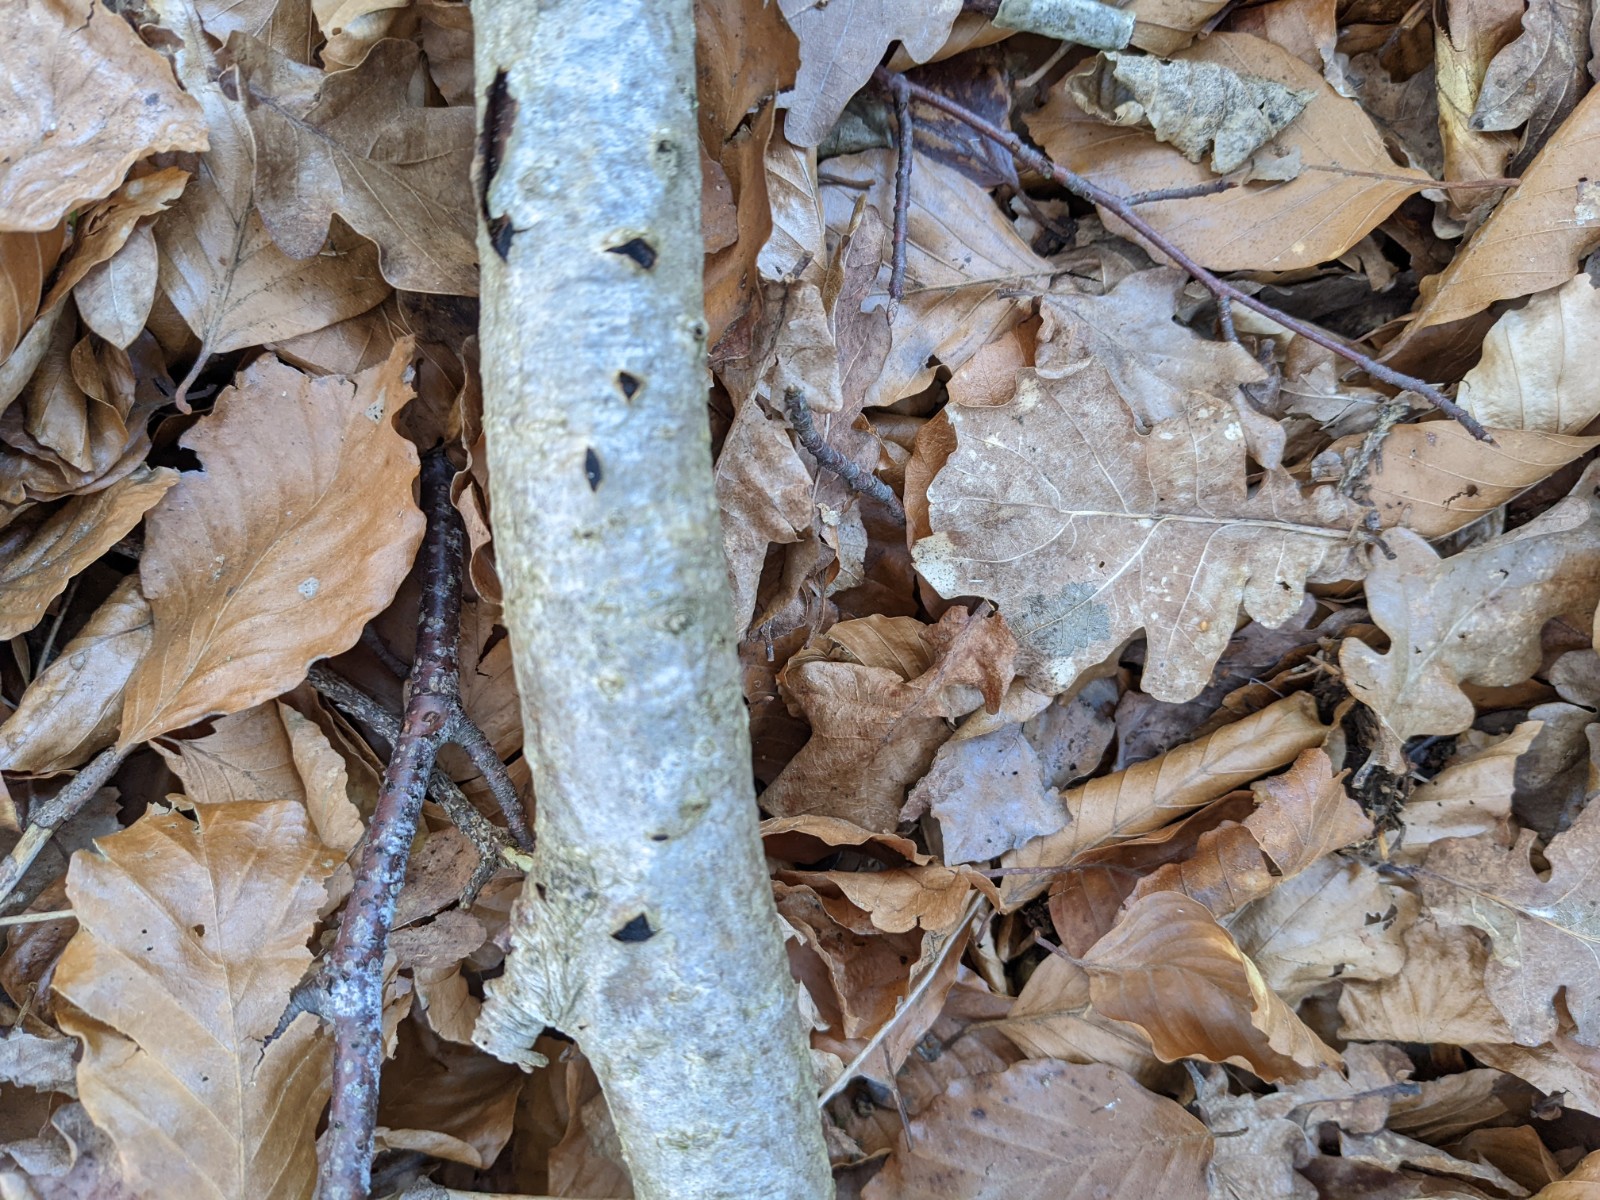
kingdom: Fungi
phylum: Ascomycota
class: Sordariomycetes
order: Xylariales
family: Diatrypaceae
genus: Eutypella
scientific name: Eutypella sorbi
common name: rønne-kulskorpe
